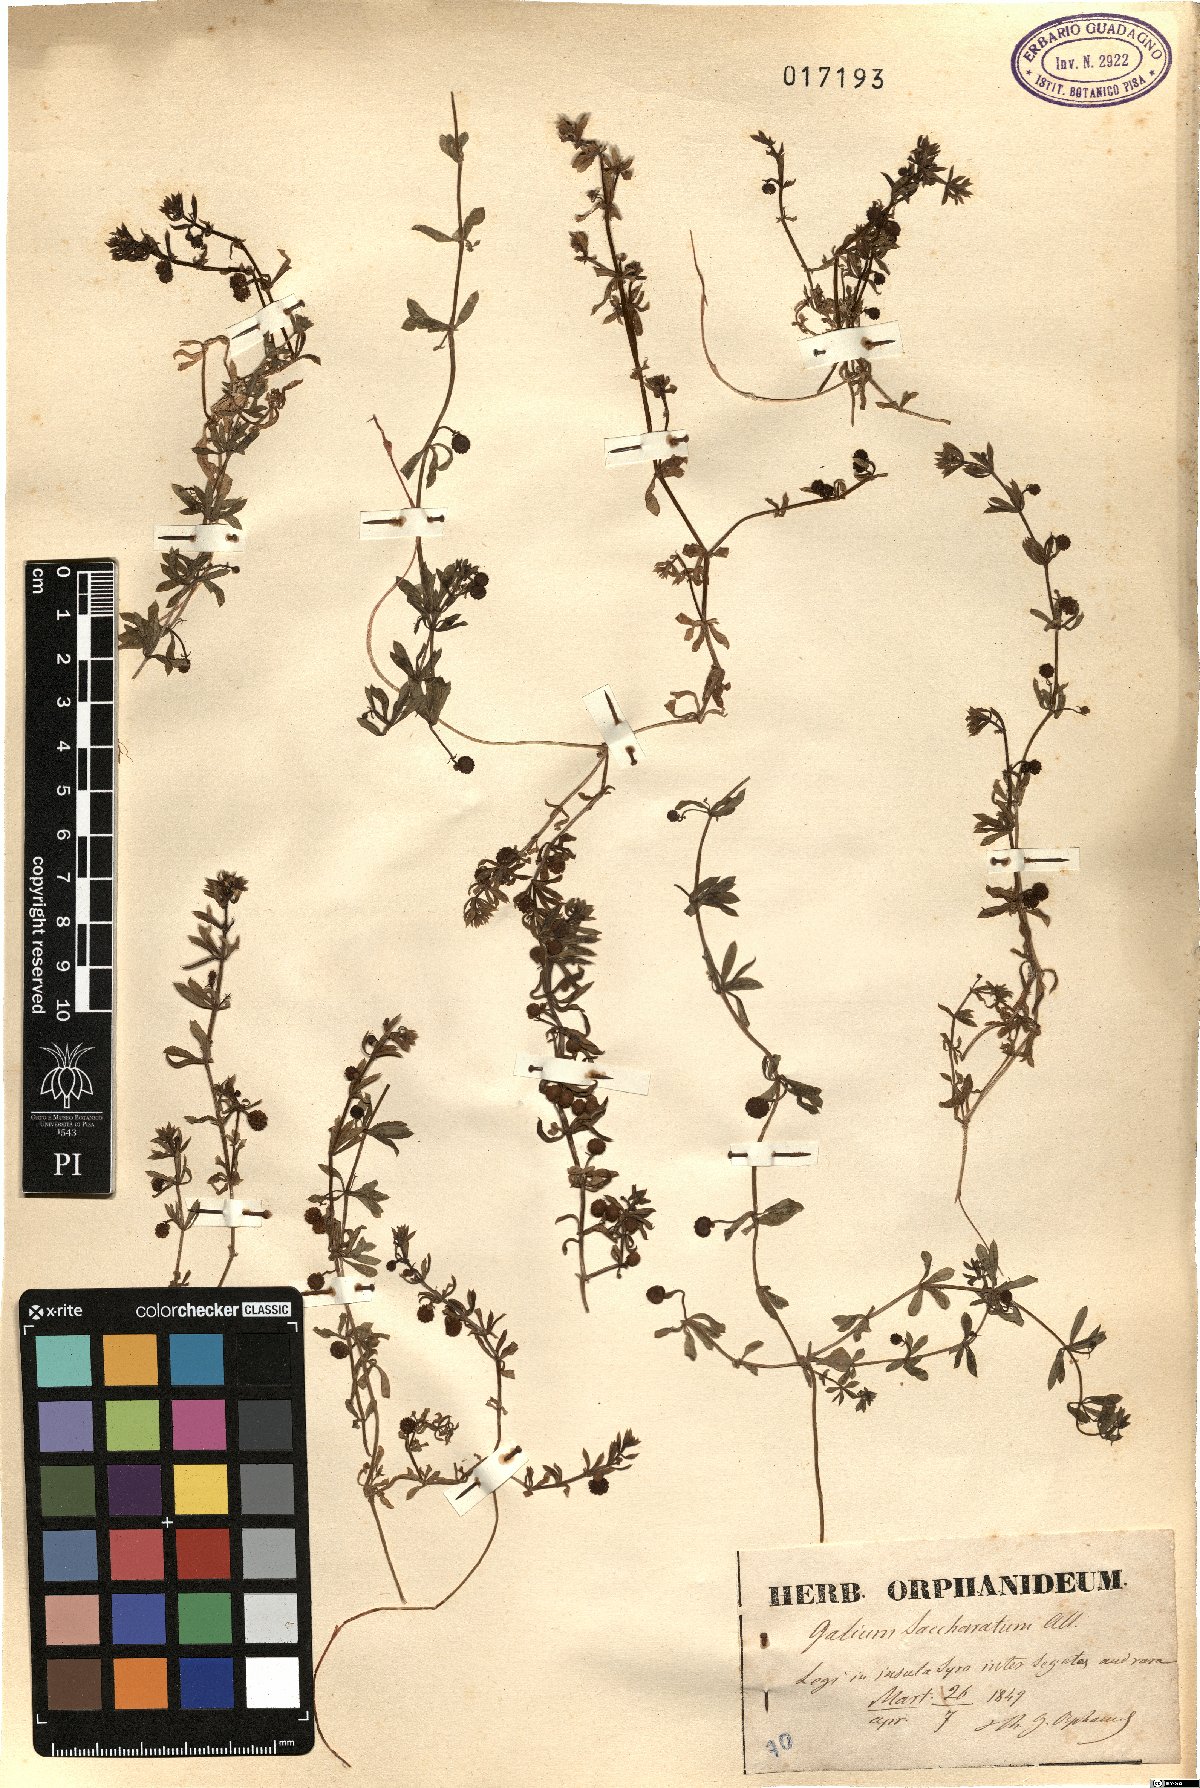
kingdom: Plantae
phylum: Tracheophyta
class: Magnoliopsida
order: Gentianales
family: Rubiaceae
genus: Galium
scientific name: Galium verrucosum
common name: Warty bedstraw
